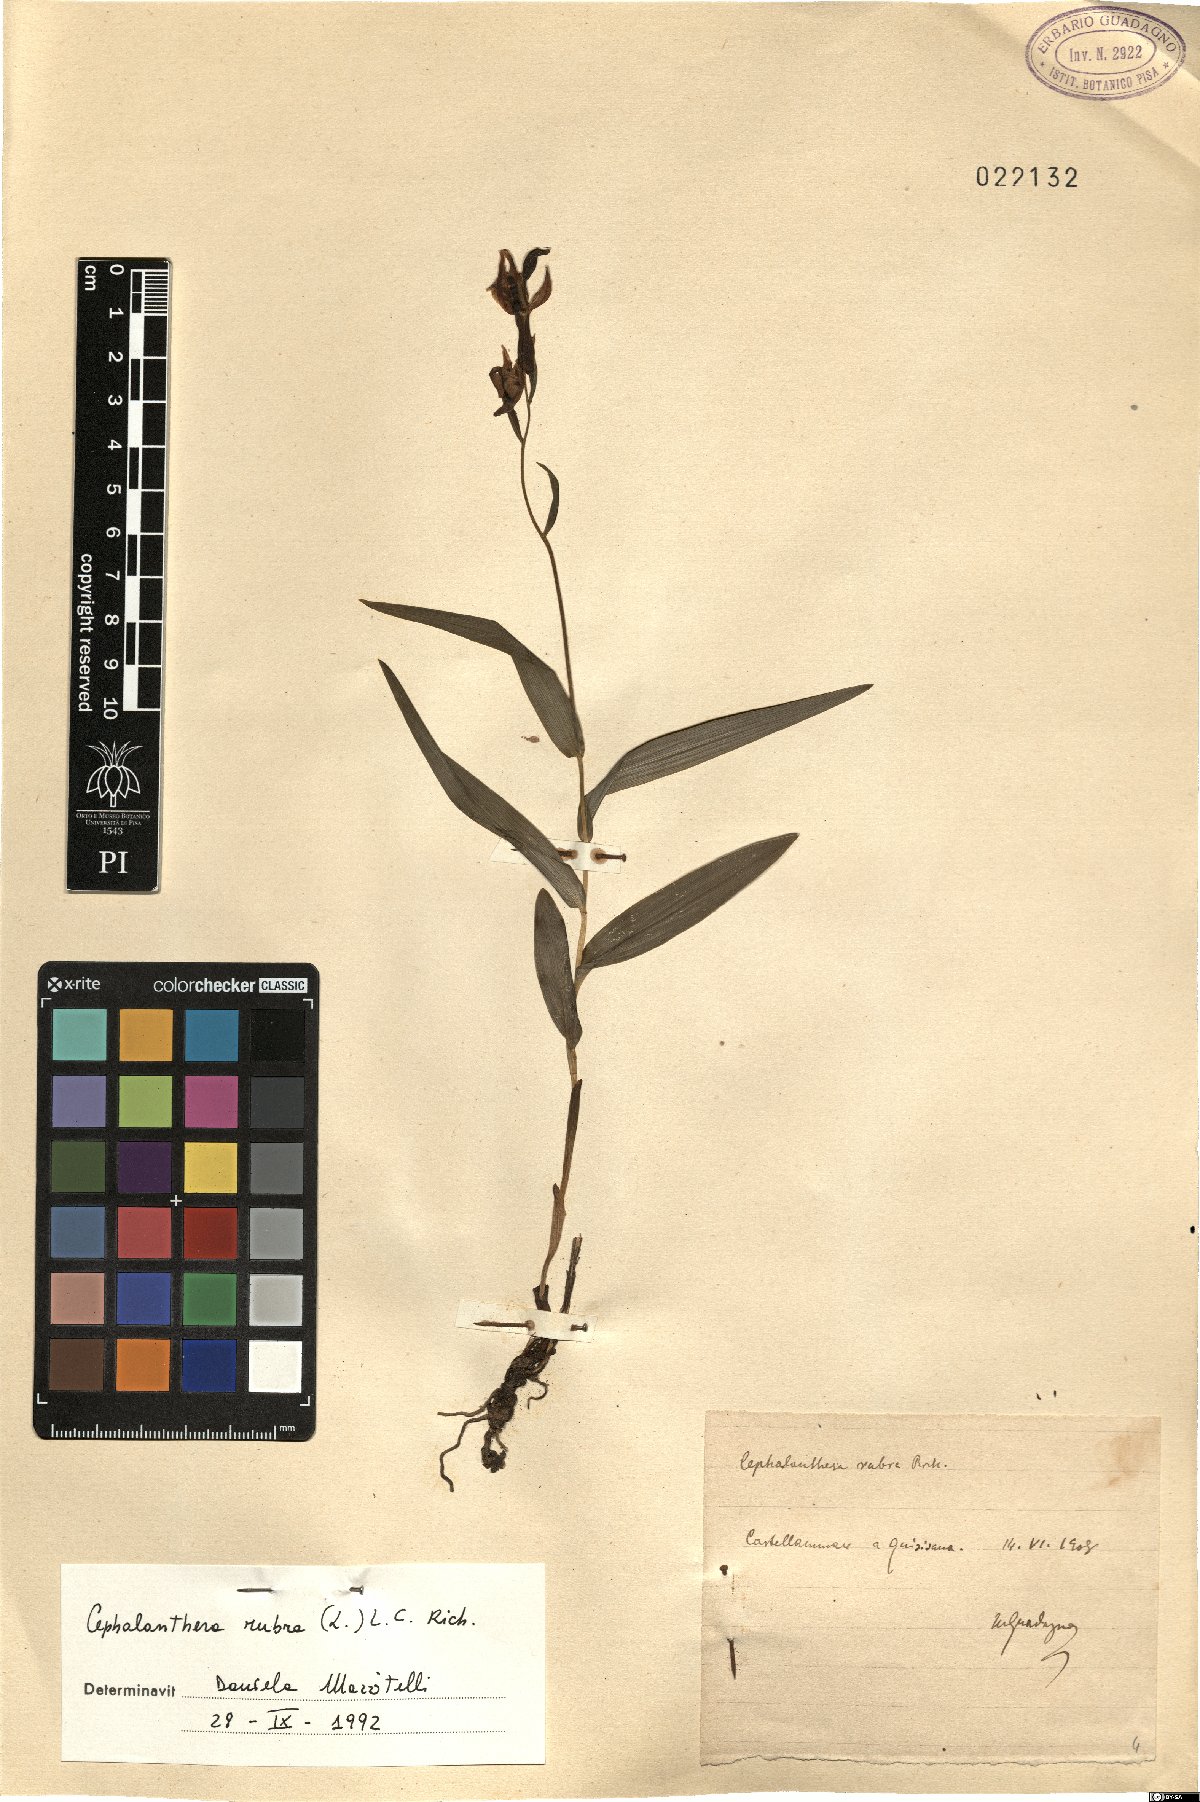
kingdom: Plantae
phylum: Tracheophyta
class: Liliopsida
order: Asparagales
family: Orchidaceae
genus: Cephalanthera
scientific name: Cephalanthera rubra
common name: Red helleborine
